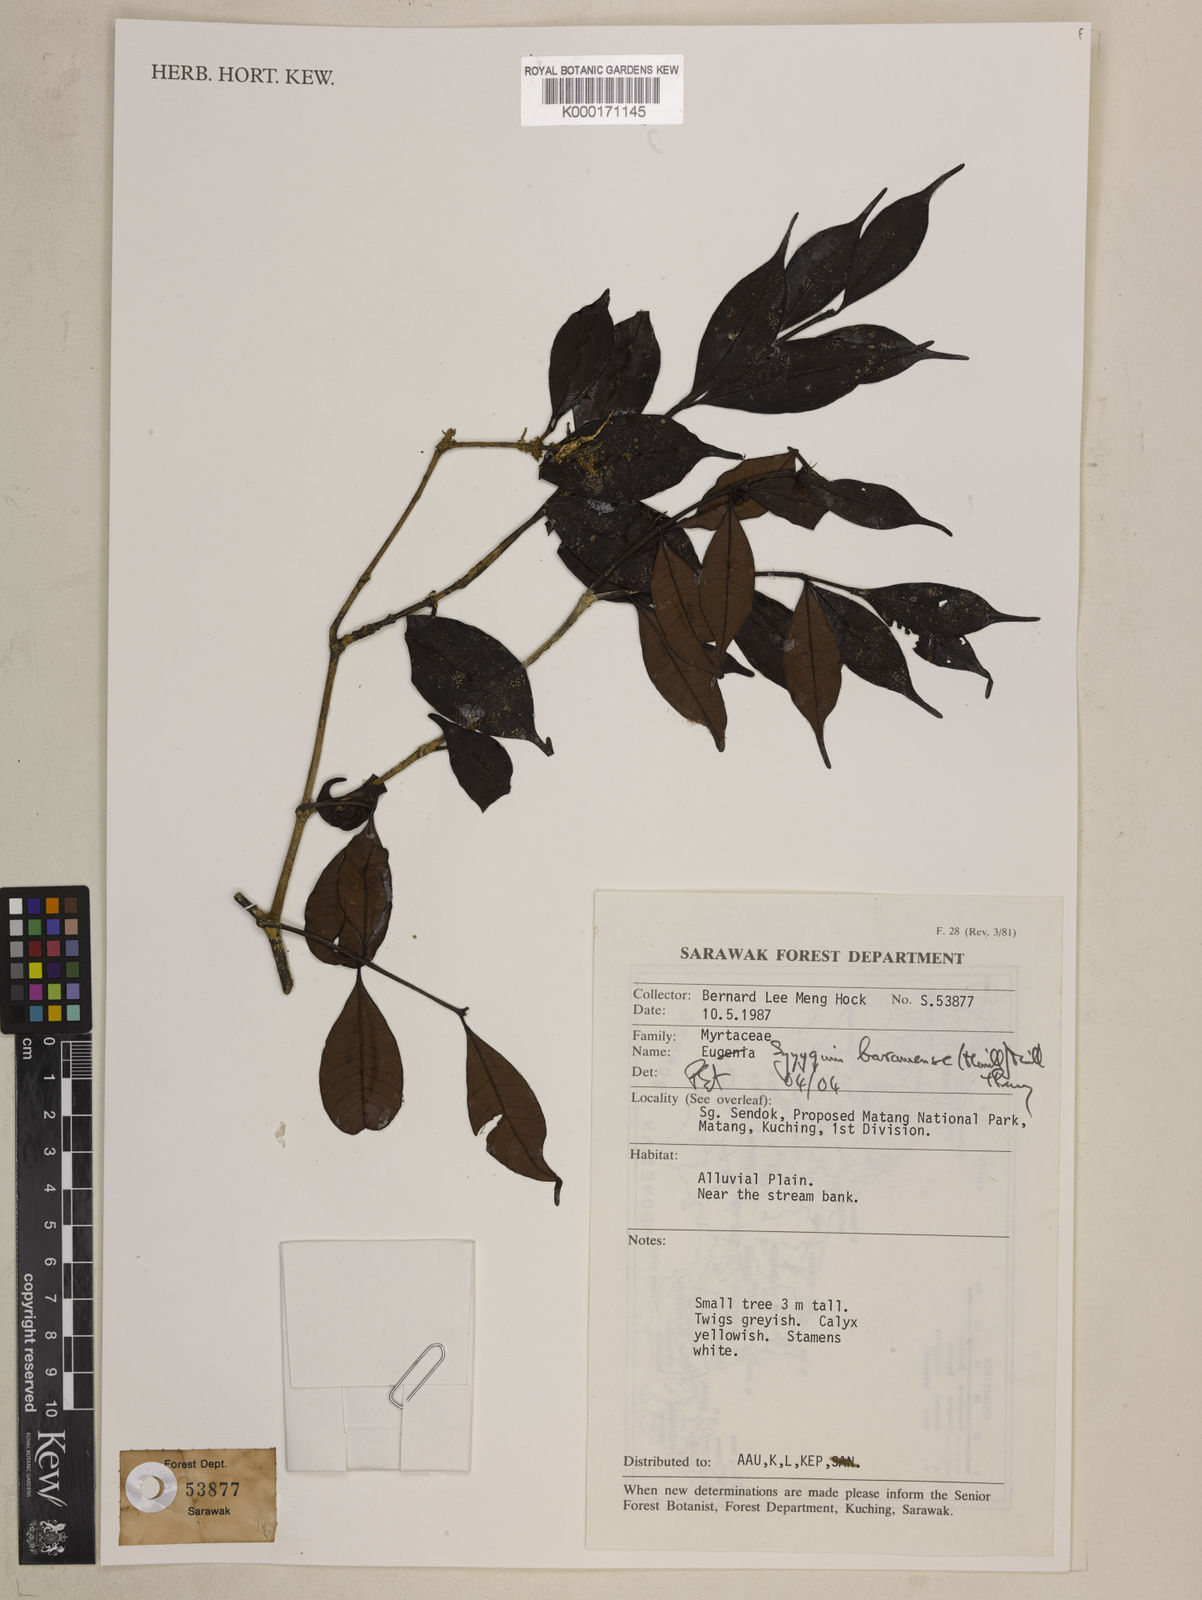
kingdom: Plantae
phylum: Tracheophyta
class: Magnoliopsida
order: Myrtales
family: Myrtaceae
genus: Syzygium
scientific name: Syzygium baramense
